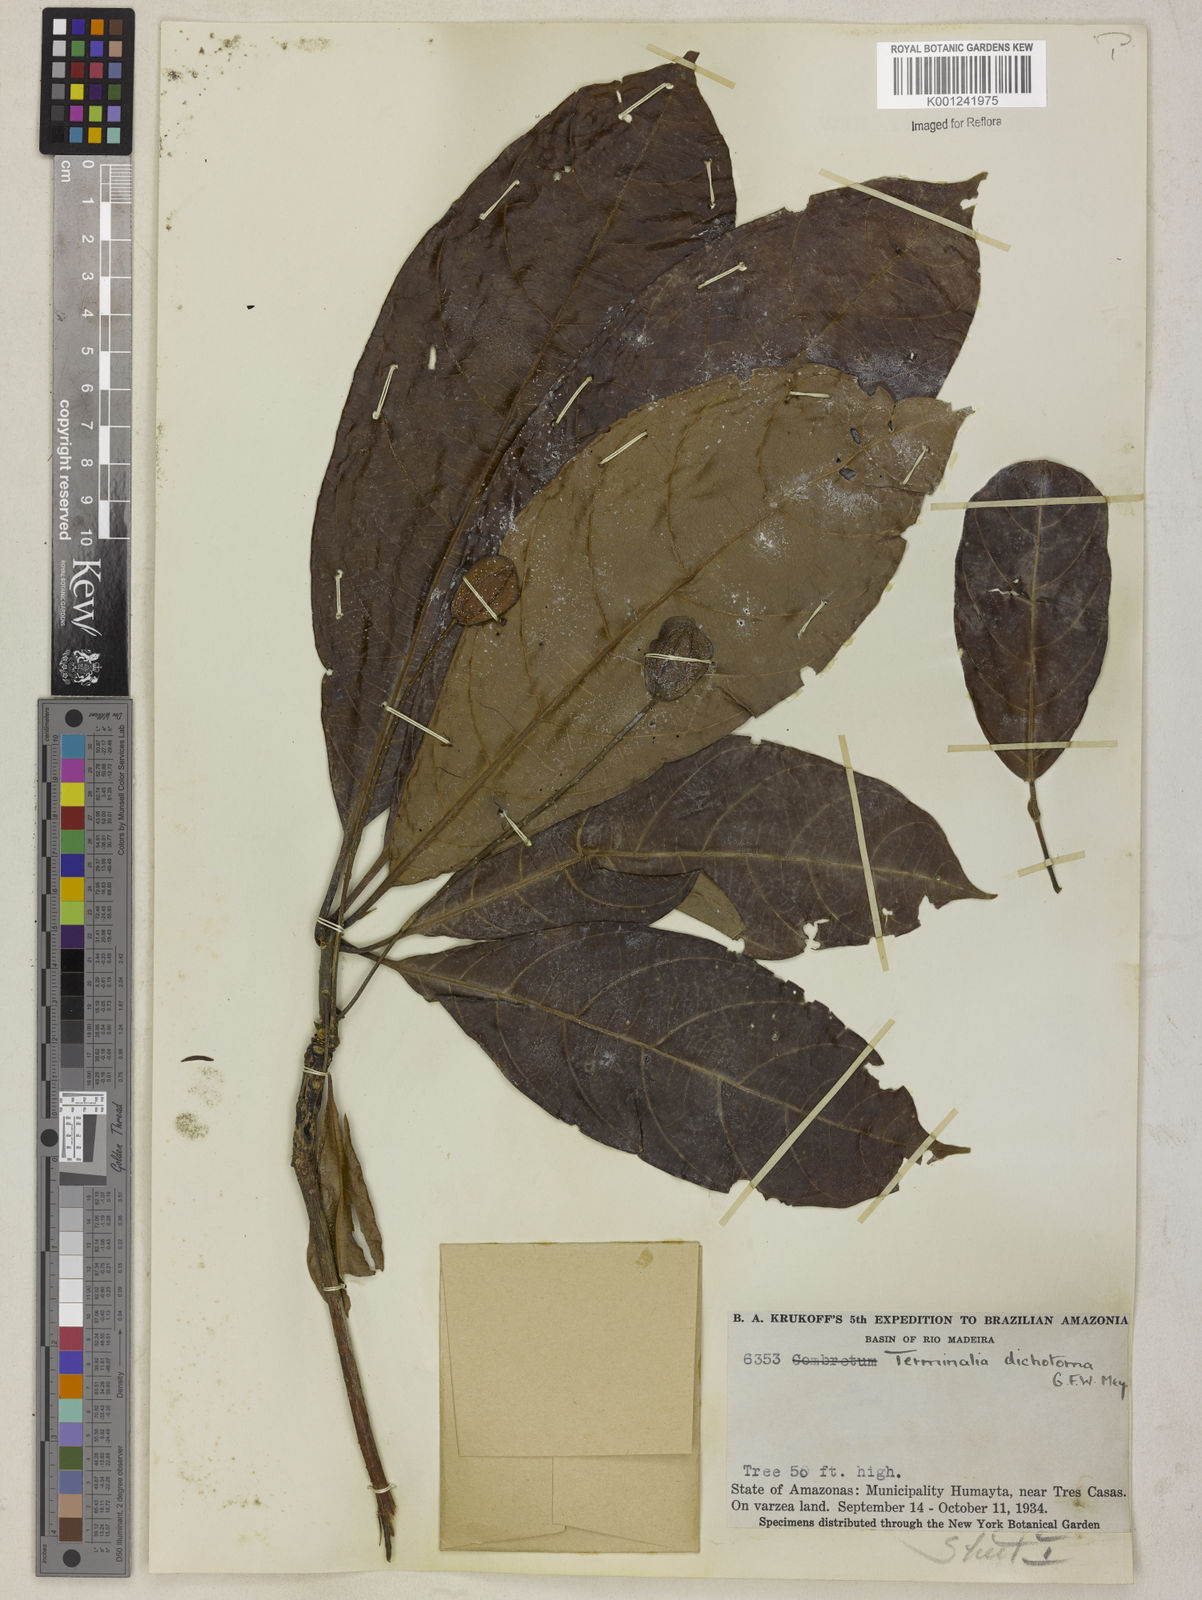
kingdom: Plantae
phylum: Tracheophyta
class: Magnoliopsida
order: Myrtales
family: Combretaceae
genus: Terminalia
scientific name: Terminalia dichotoma
